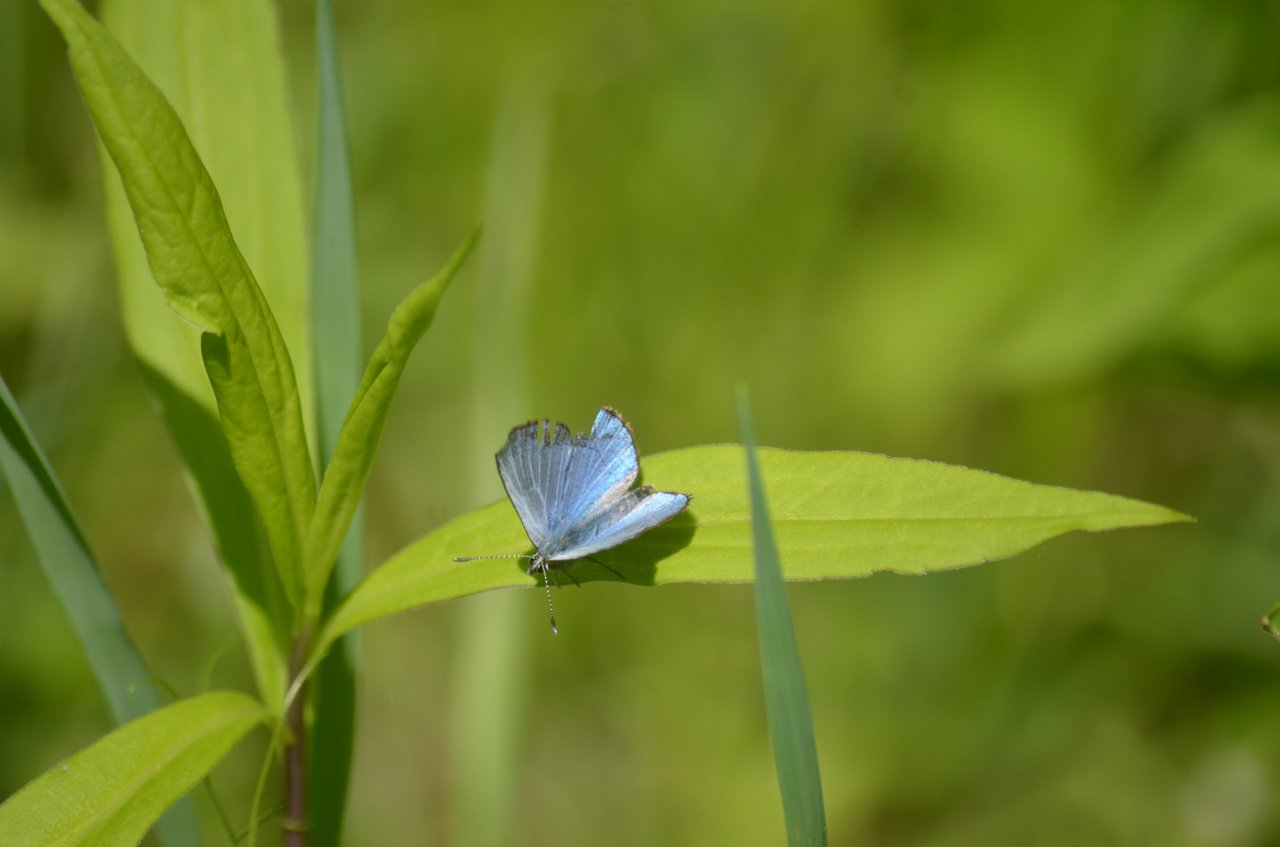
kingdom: Animalia
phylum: Arthropoda
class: Insecta
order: Lepidoptera
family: Lycaenidae
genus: Glaucopsyche
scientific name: Glaucopsyche lygdamus
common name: Silvery Blue
